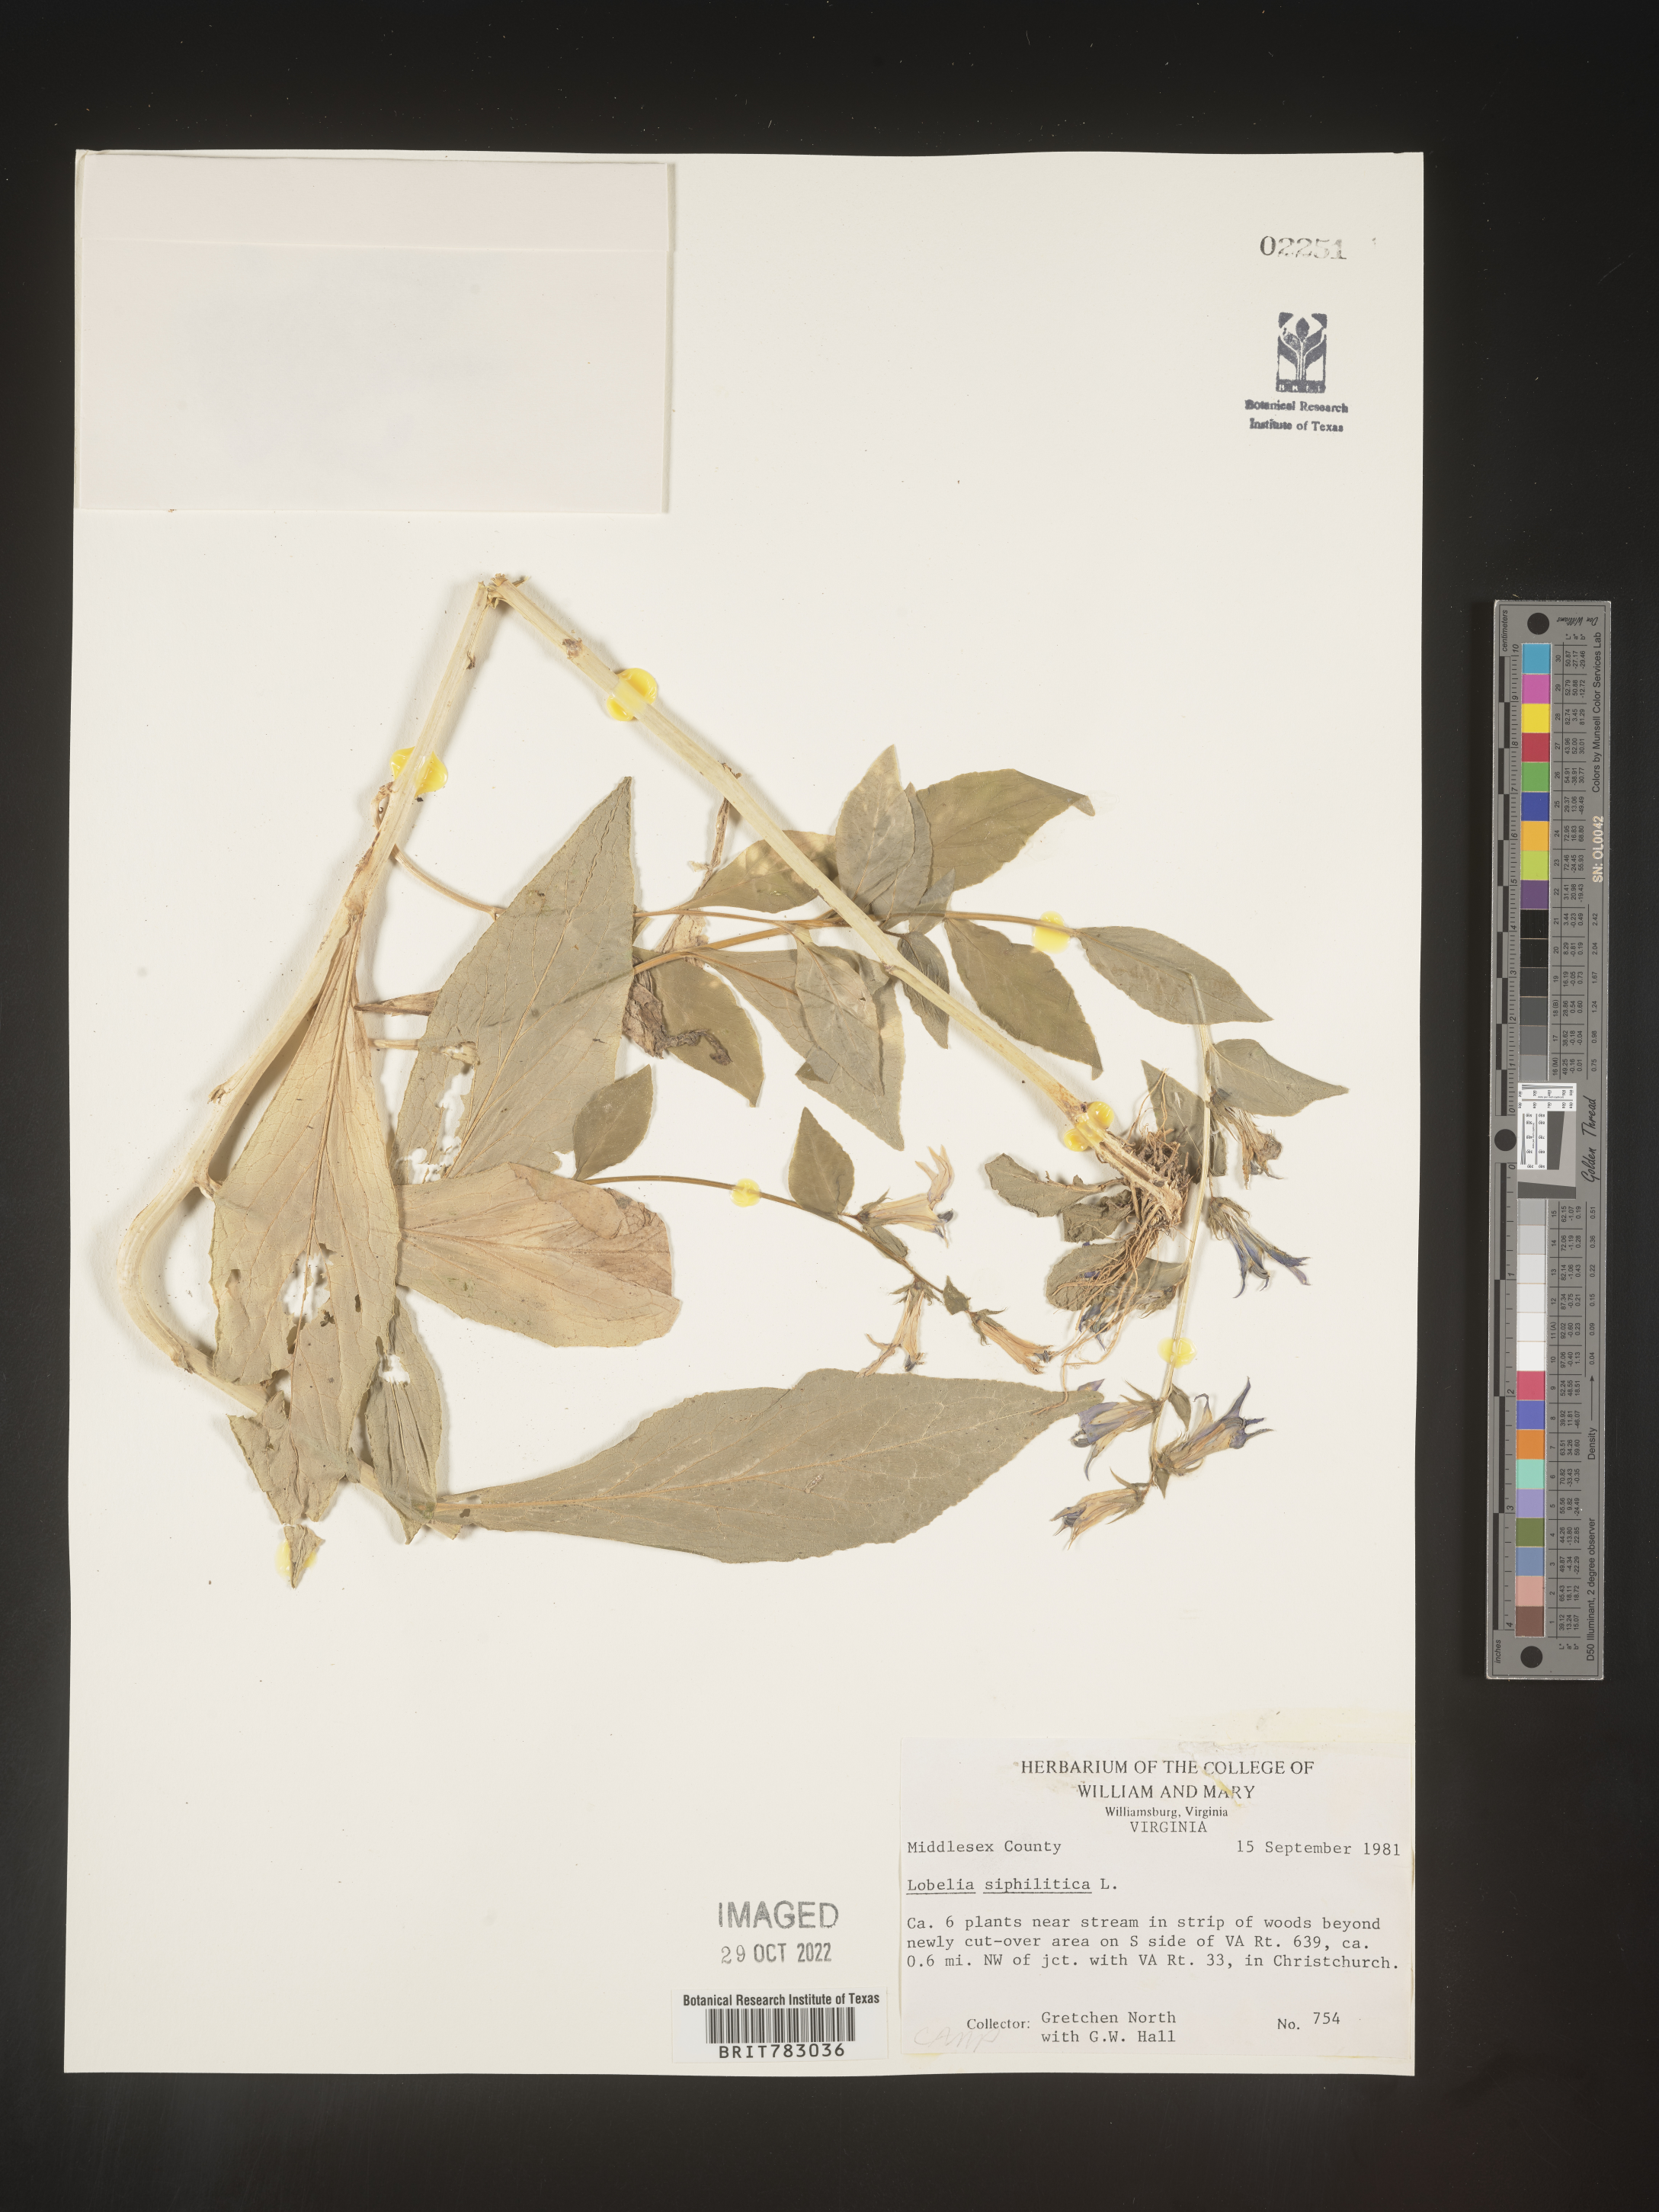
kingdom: Plantae
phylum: Tracheophyta
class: Magnoliopsida
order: Asterales
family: Campanulaceae
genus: Lobelia
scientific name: Lobelia siphilitica
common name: Great lobelia
